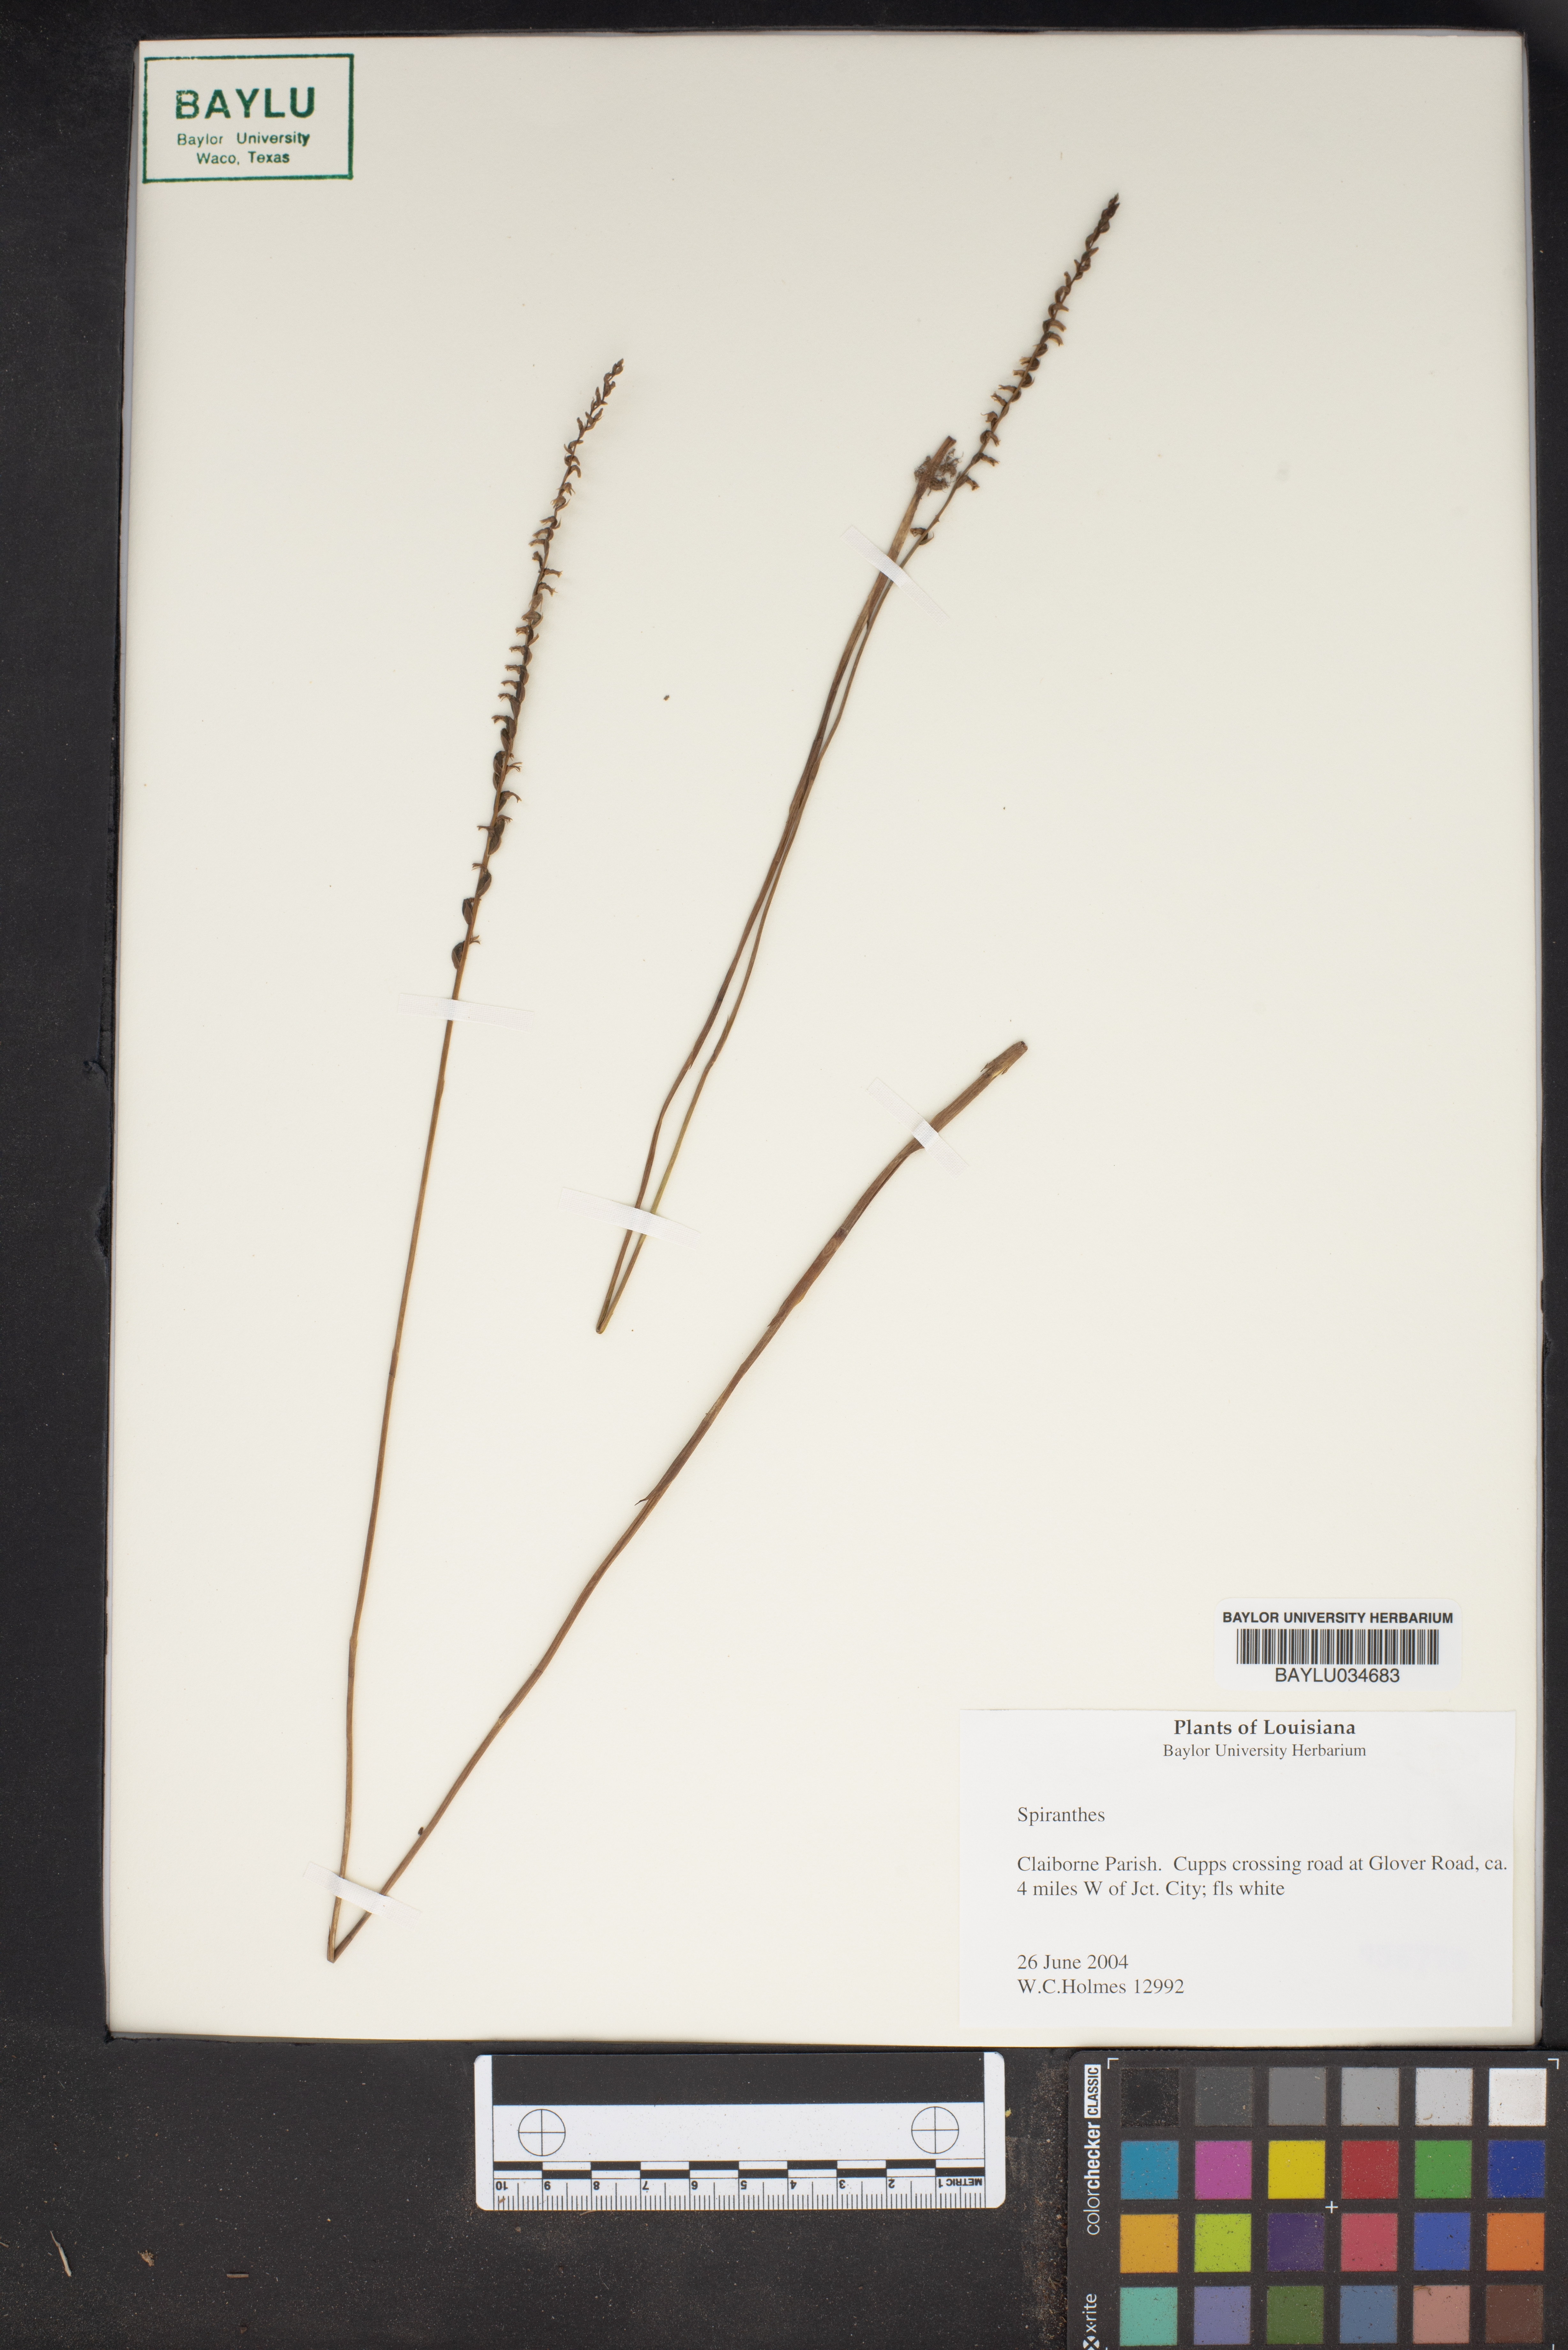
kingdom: Plantae
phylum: Tracheophyta
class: Liliopsida
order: Asparagales
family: Orchidaceae
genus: Spiranthes
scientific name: Spiranthes
